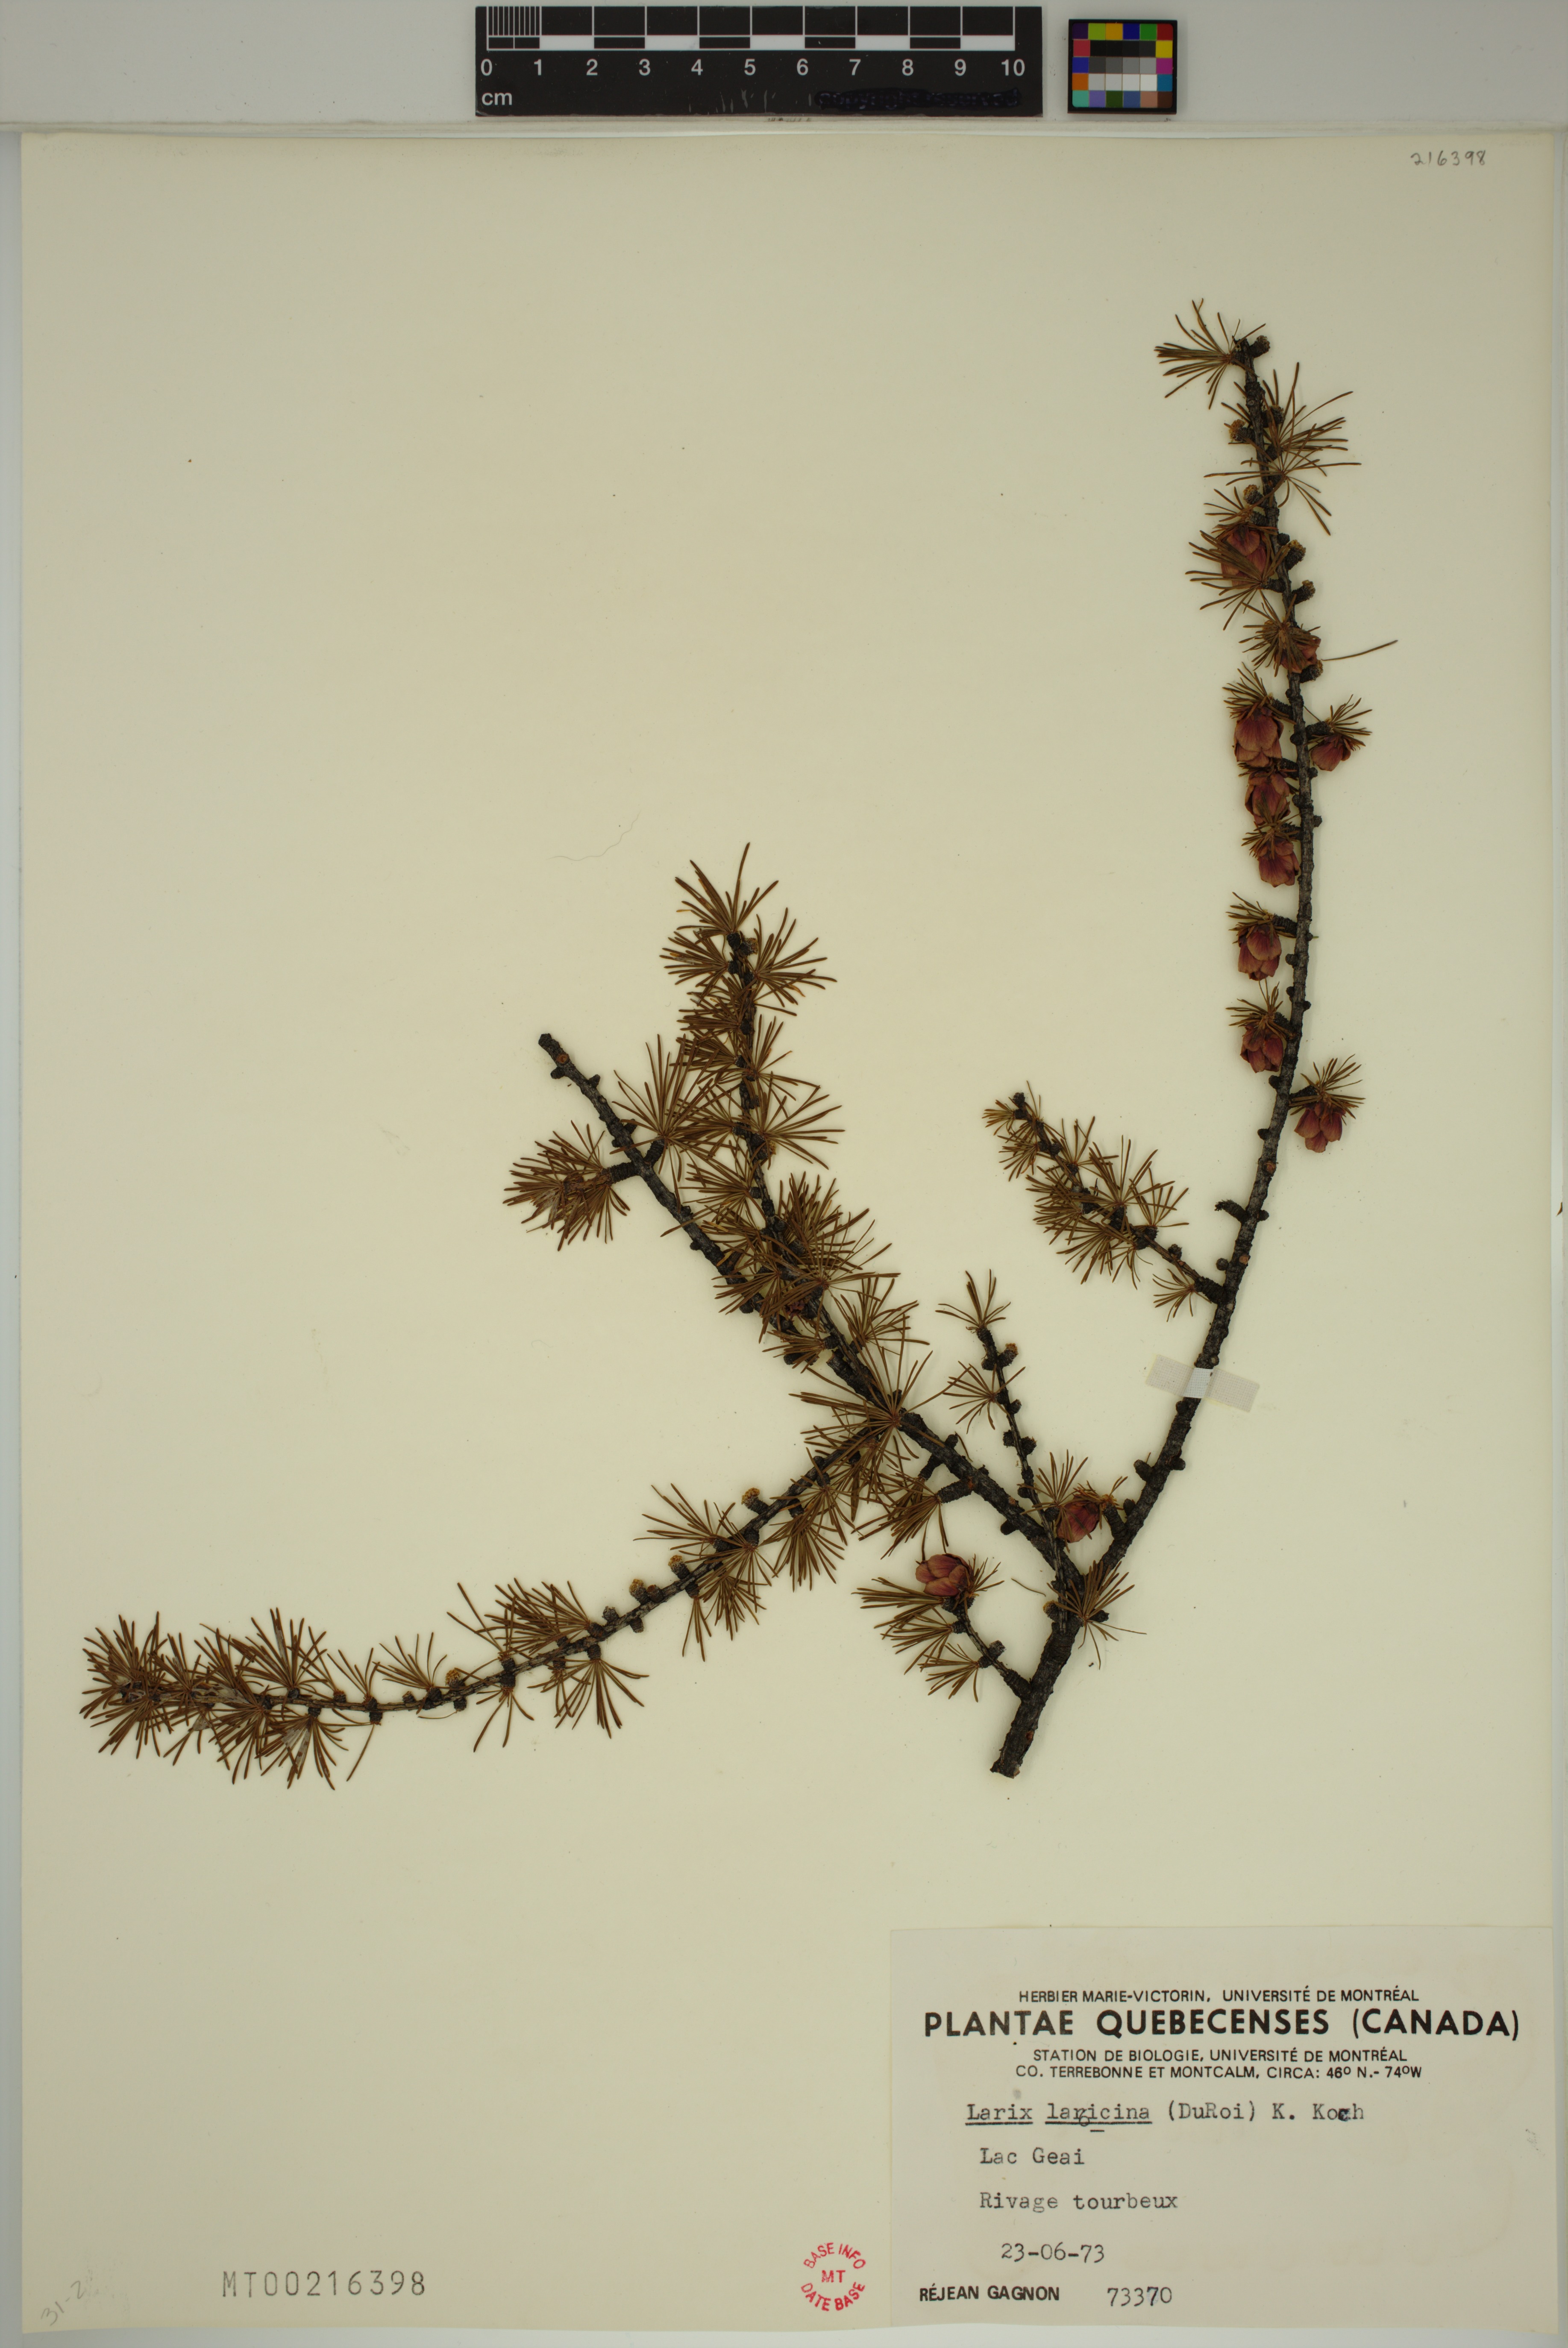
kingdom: Plantae
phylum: Tracheophyta
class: Pinopsida
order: Pinales
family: Pinaceae
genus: Larix
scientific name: Larix laricina
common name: American larch
